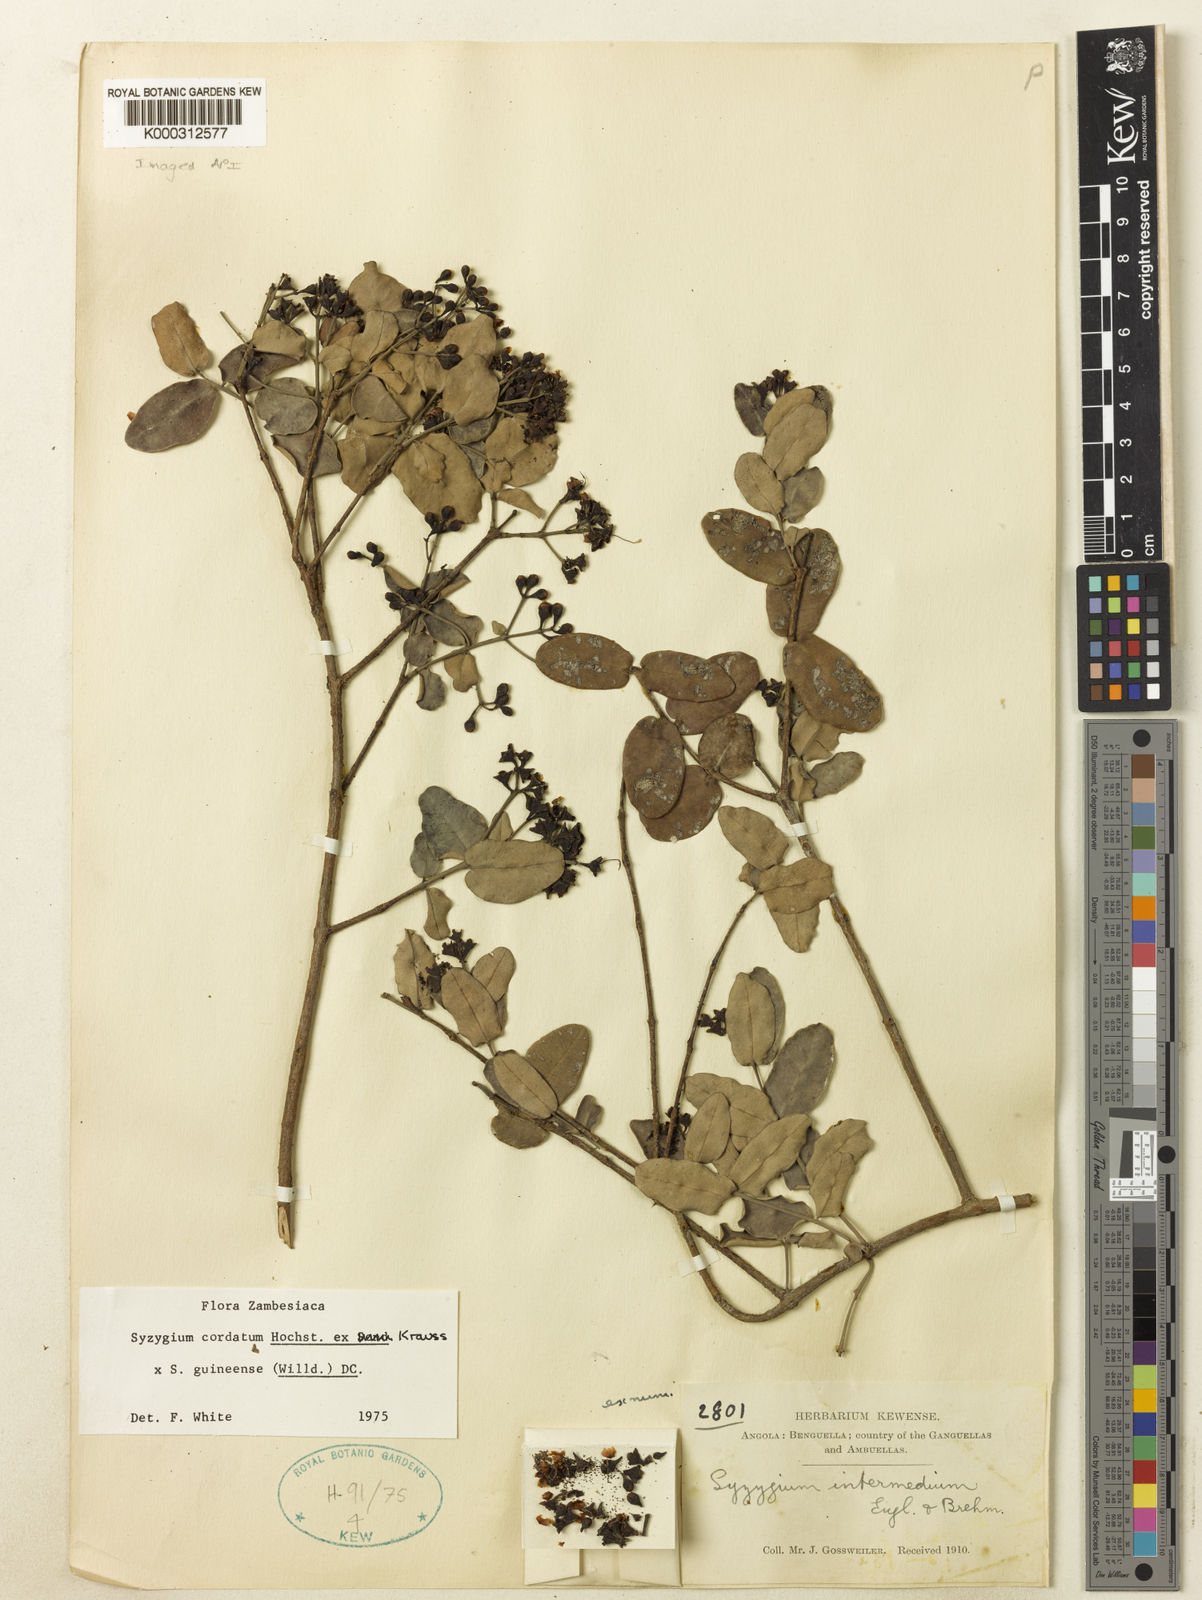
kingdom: Plantae
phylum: Tracheophyta
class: Magnoliopsida
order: Myrtales
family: Myrtaceae
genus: Syzygium
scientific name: Syzygium cordatum
